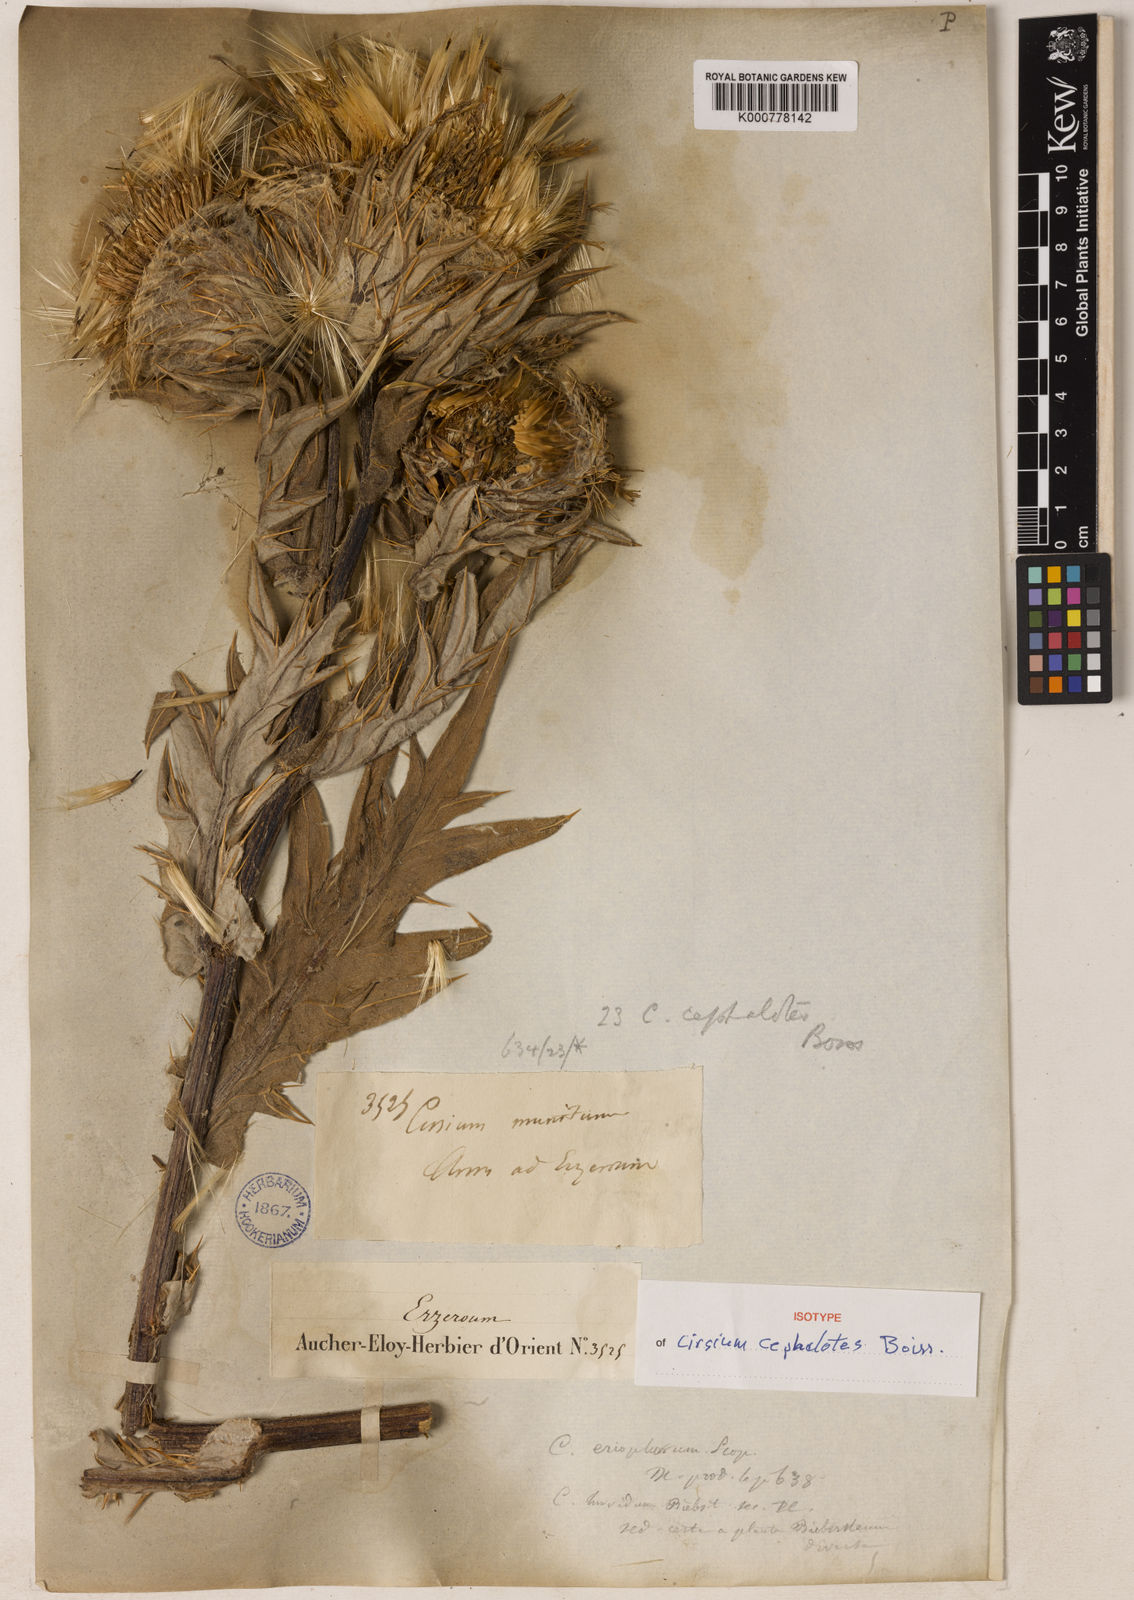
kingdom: Plantae
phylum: Tracheophyta
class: Magnoliopsida
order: Asterales
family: Asteraceae
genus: Lophiolepis
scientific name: Lophiolepis cephalotes
